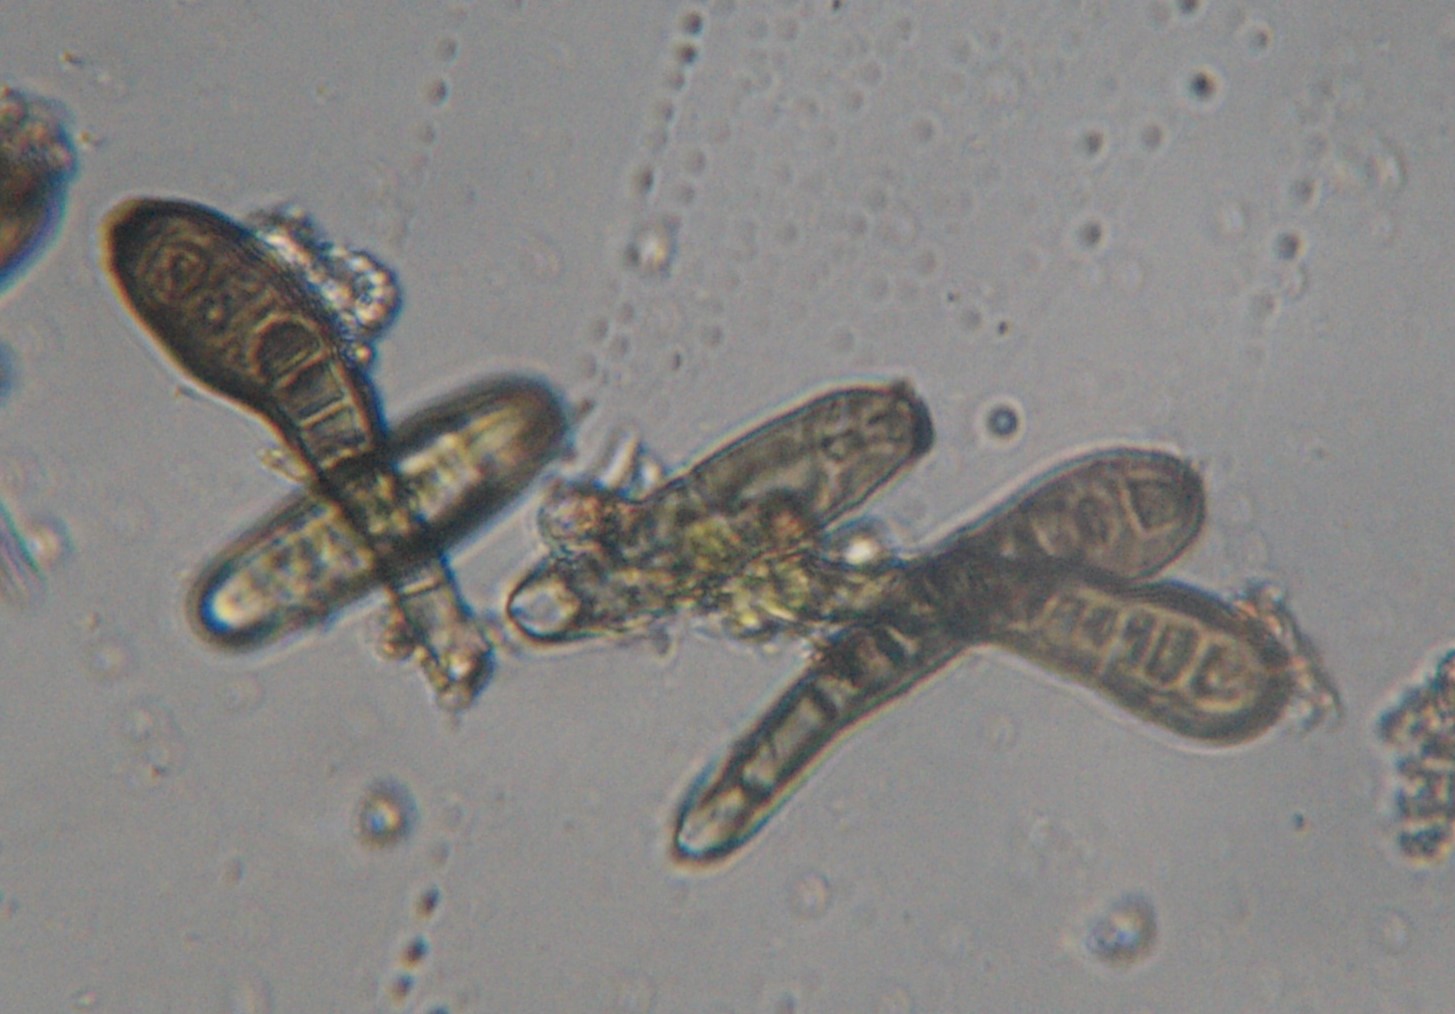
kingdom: Fungi
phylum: Ascomycota
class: Dothideomycetes
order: Pleosporales
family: Massarinaceae
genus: Helminthosporium
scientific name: Helminthosporium oligosporum
